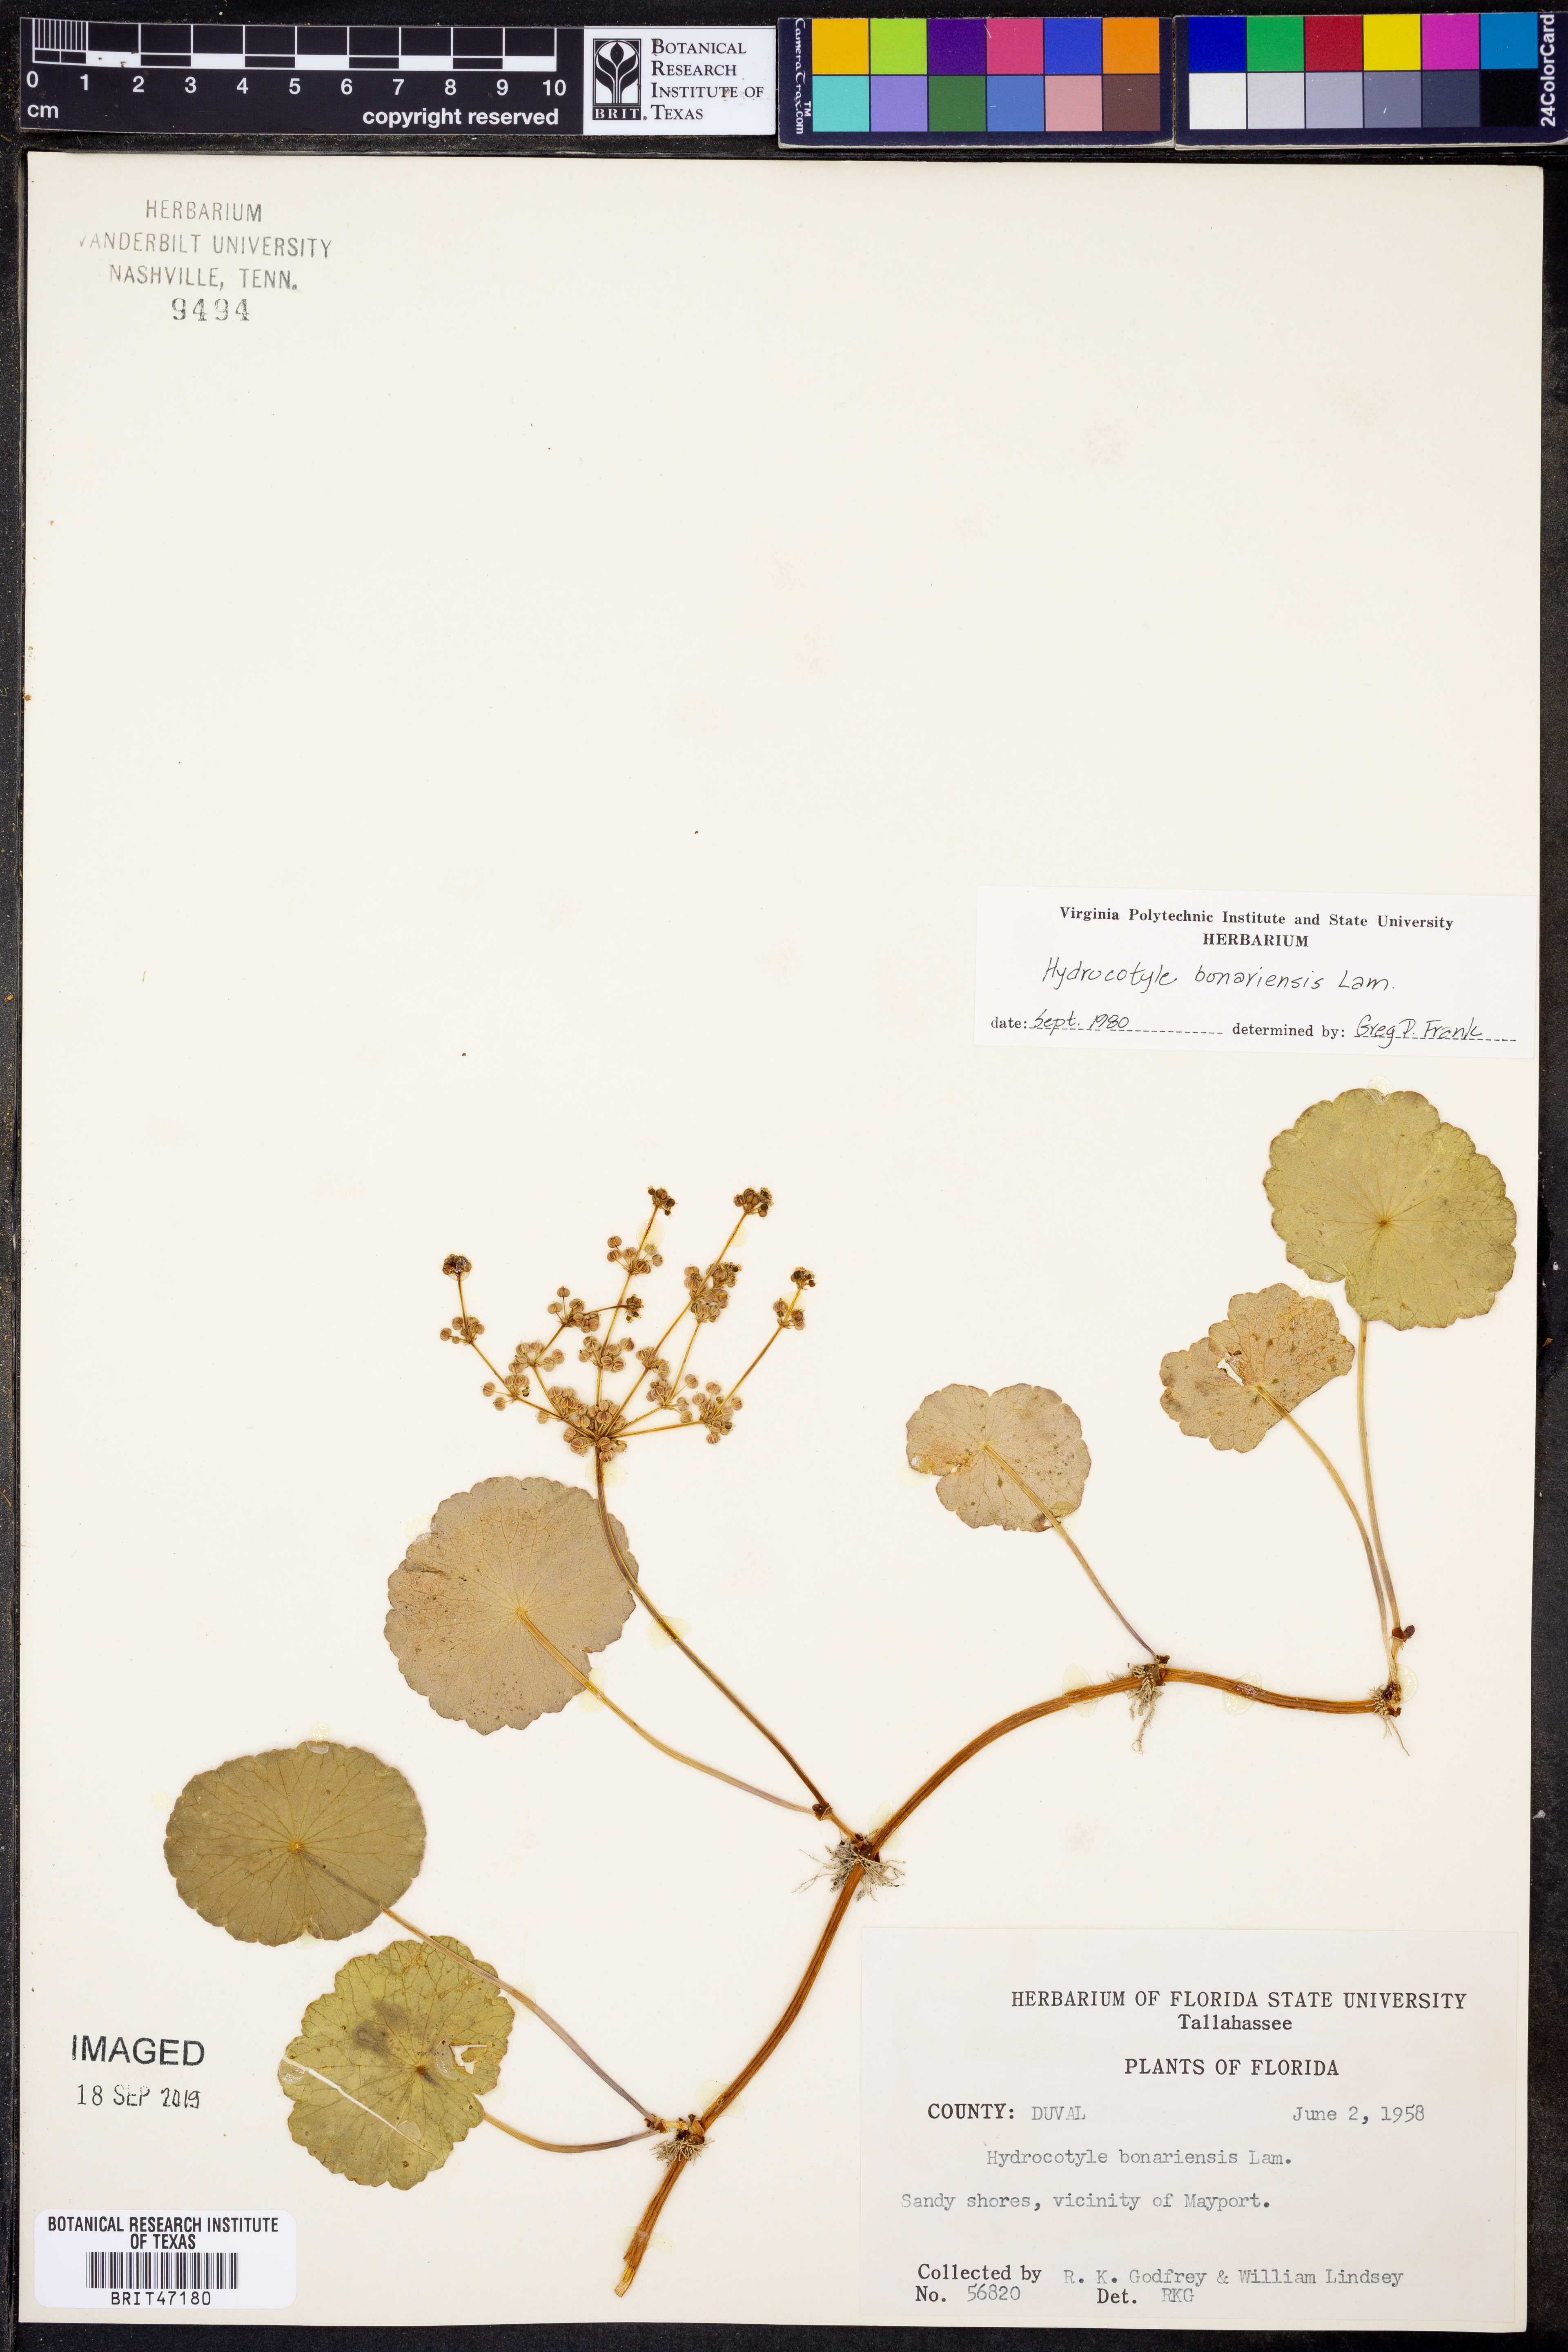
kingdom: Plantae
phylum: Tracheophyta
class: Magnoliopsida
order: Apiales
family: Araliaceae
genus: Hydrocotyle
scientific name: Hydrocotyle bonariensis
